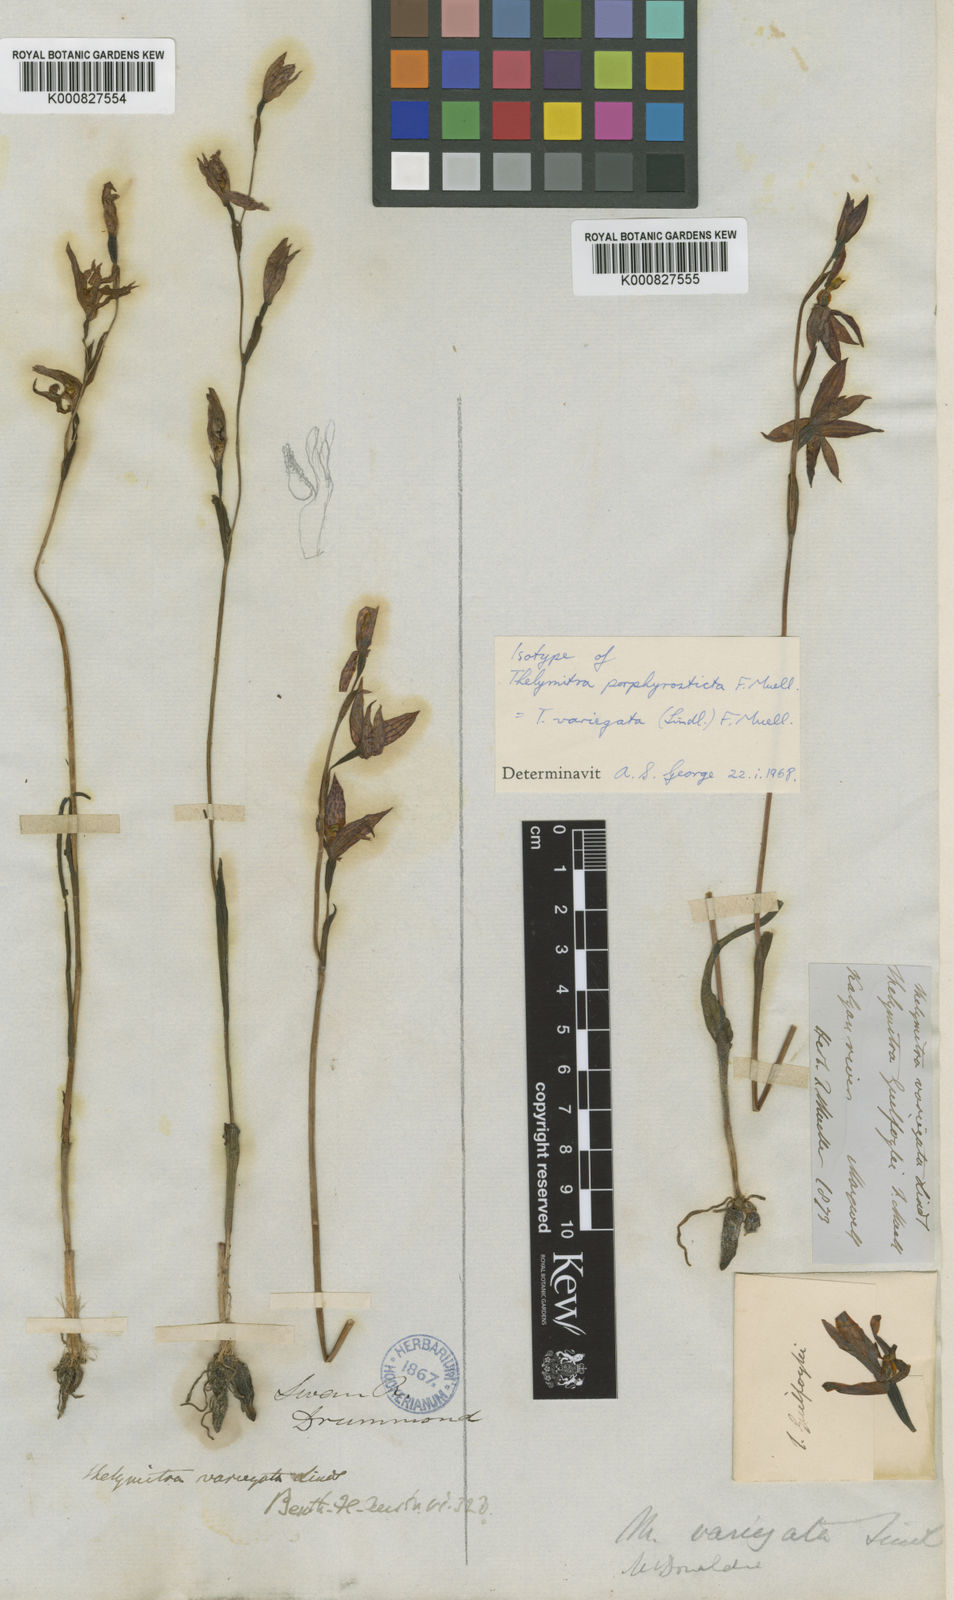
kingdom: Plantae
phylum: Tracheophyta
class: Liliopsida
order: Asparagales
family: Orchidaceae
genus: Thelymitra
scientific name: Thelymitra variegata
